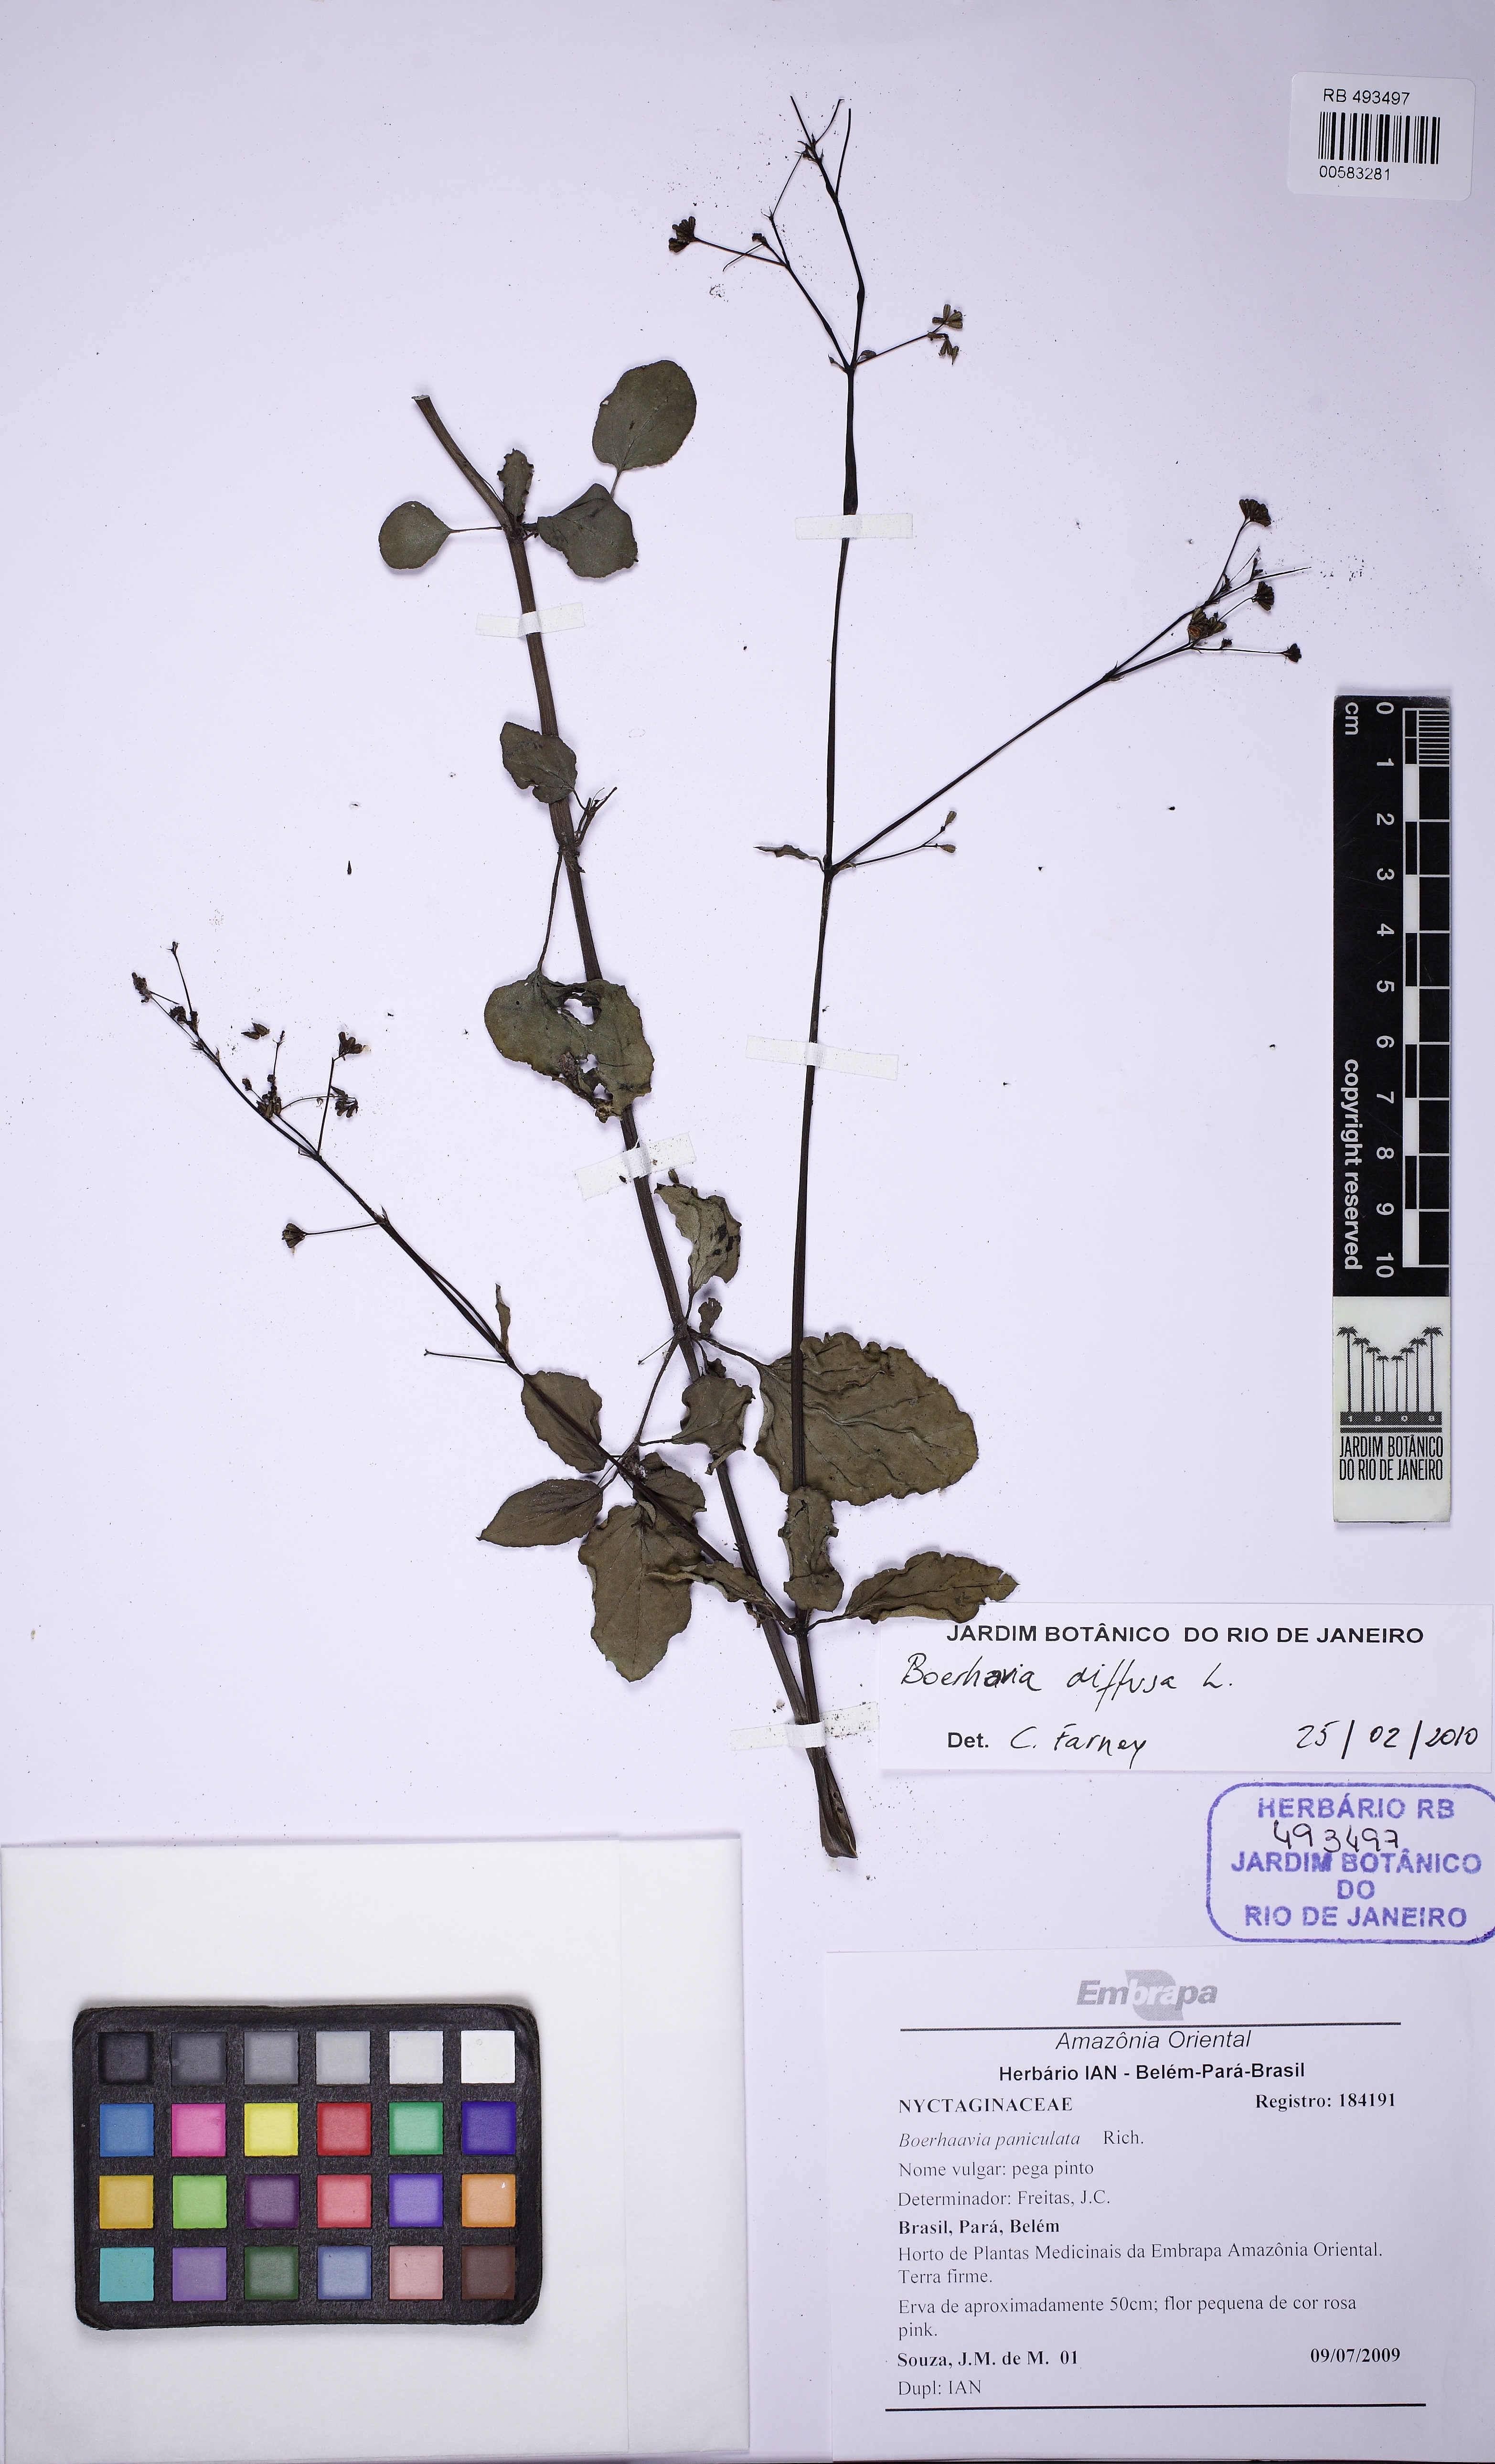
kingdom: Plantae
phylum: Tracheophyta
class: Magnoliopsida
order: Caryophyllales
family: Nyctaginaceae
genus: Boerhavia
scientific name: Boerhavia diffusa
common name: Red spiderling
